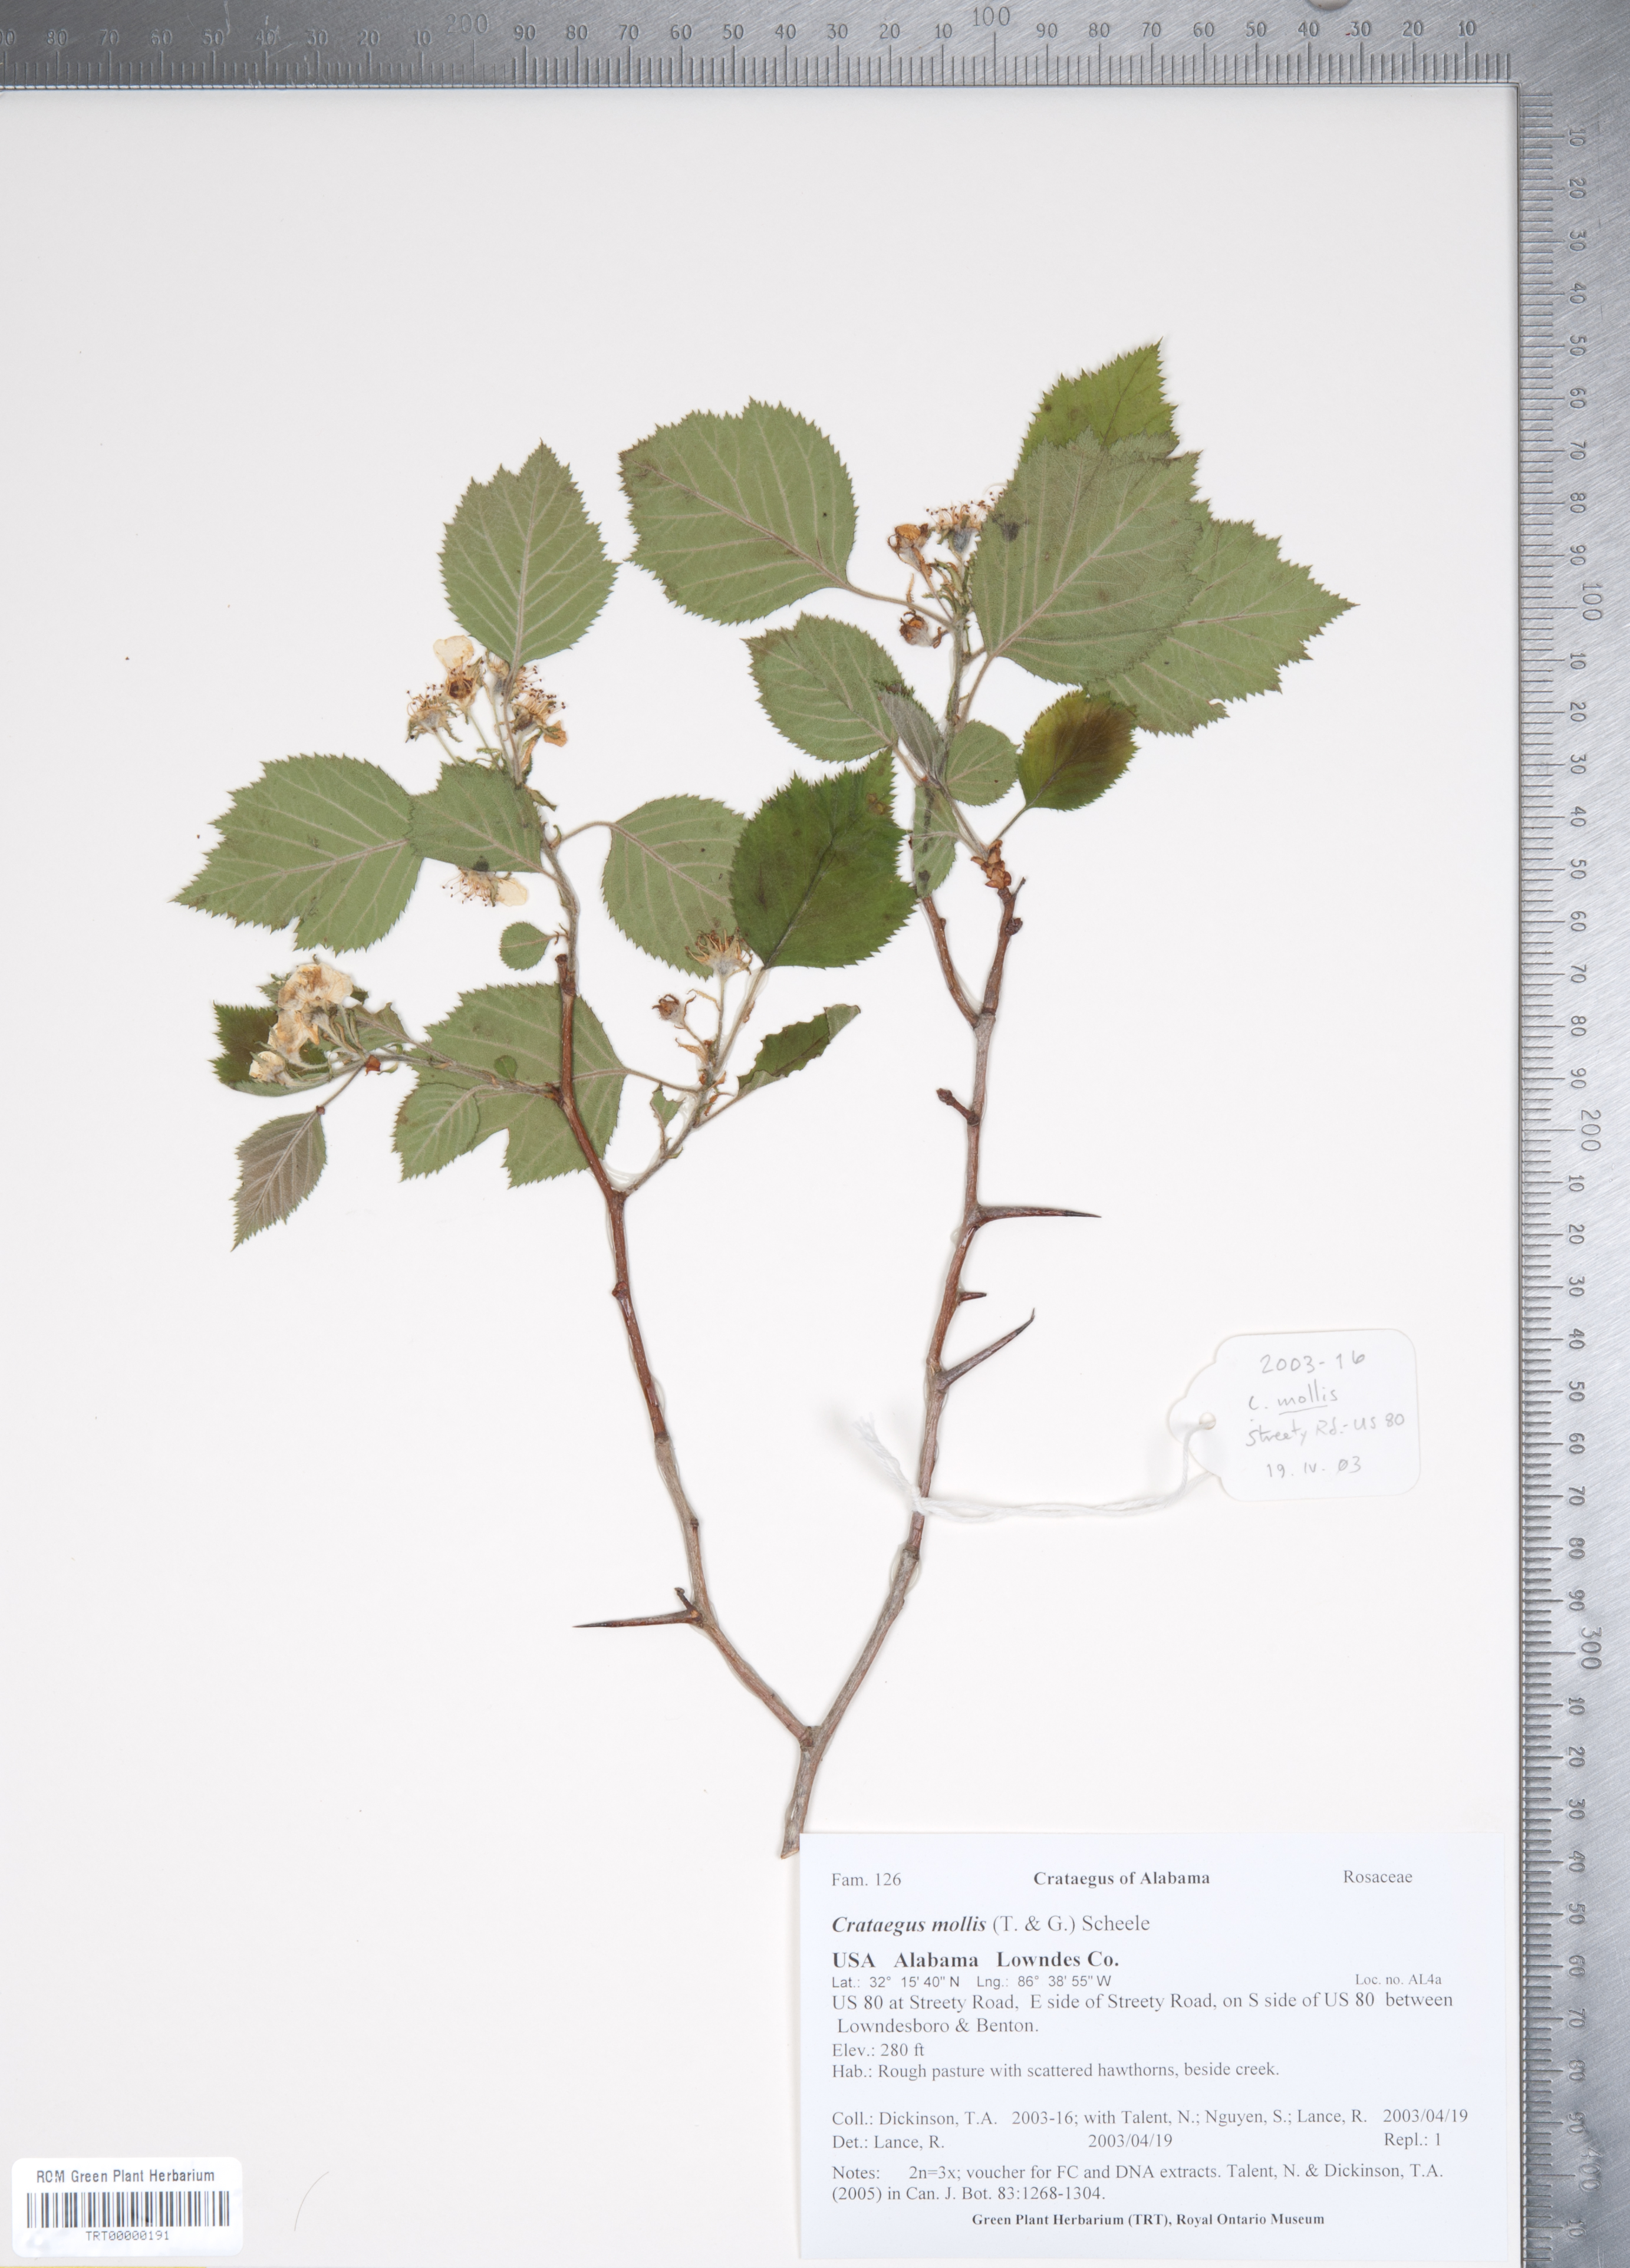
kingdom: Plantae
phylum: Tracheophyta
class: Magnoliopsida
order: Rosales
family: Rosaceae
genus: Crataegus
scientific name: Crataegus mollis
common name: Downy hawthorn
